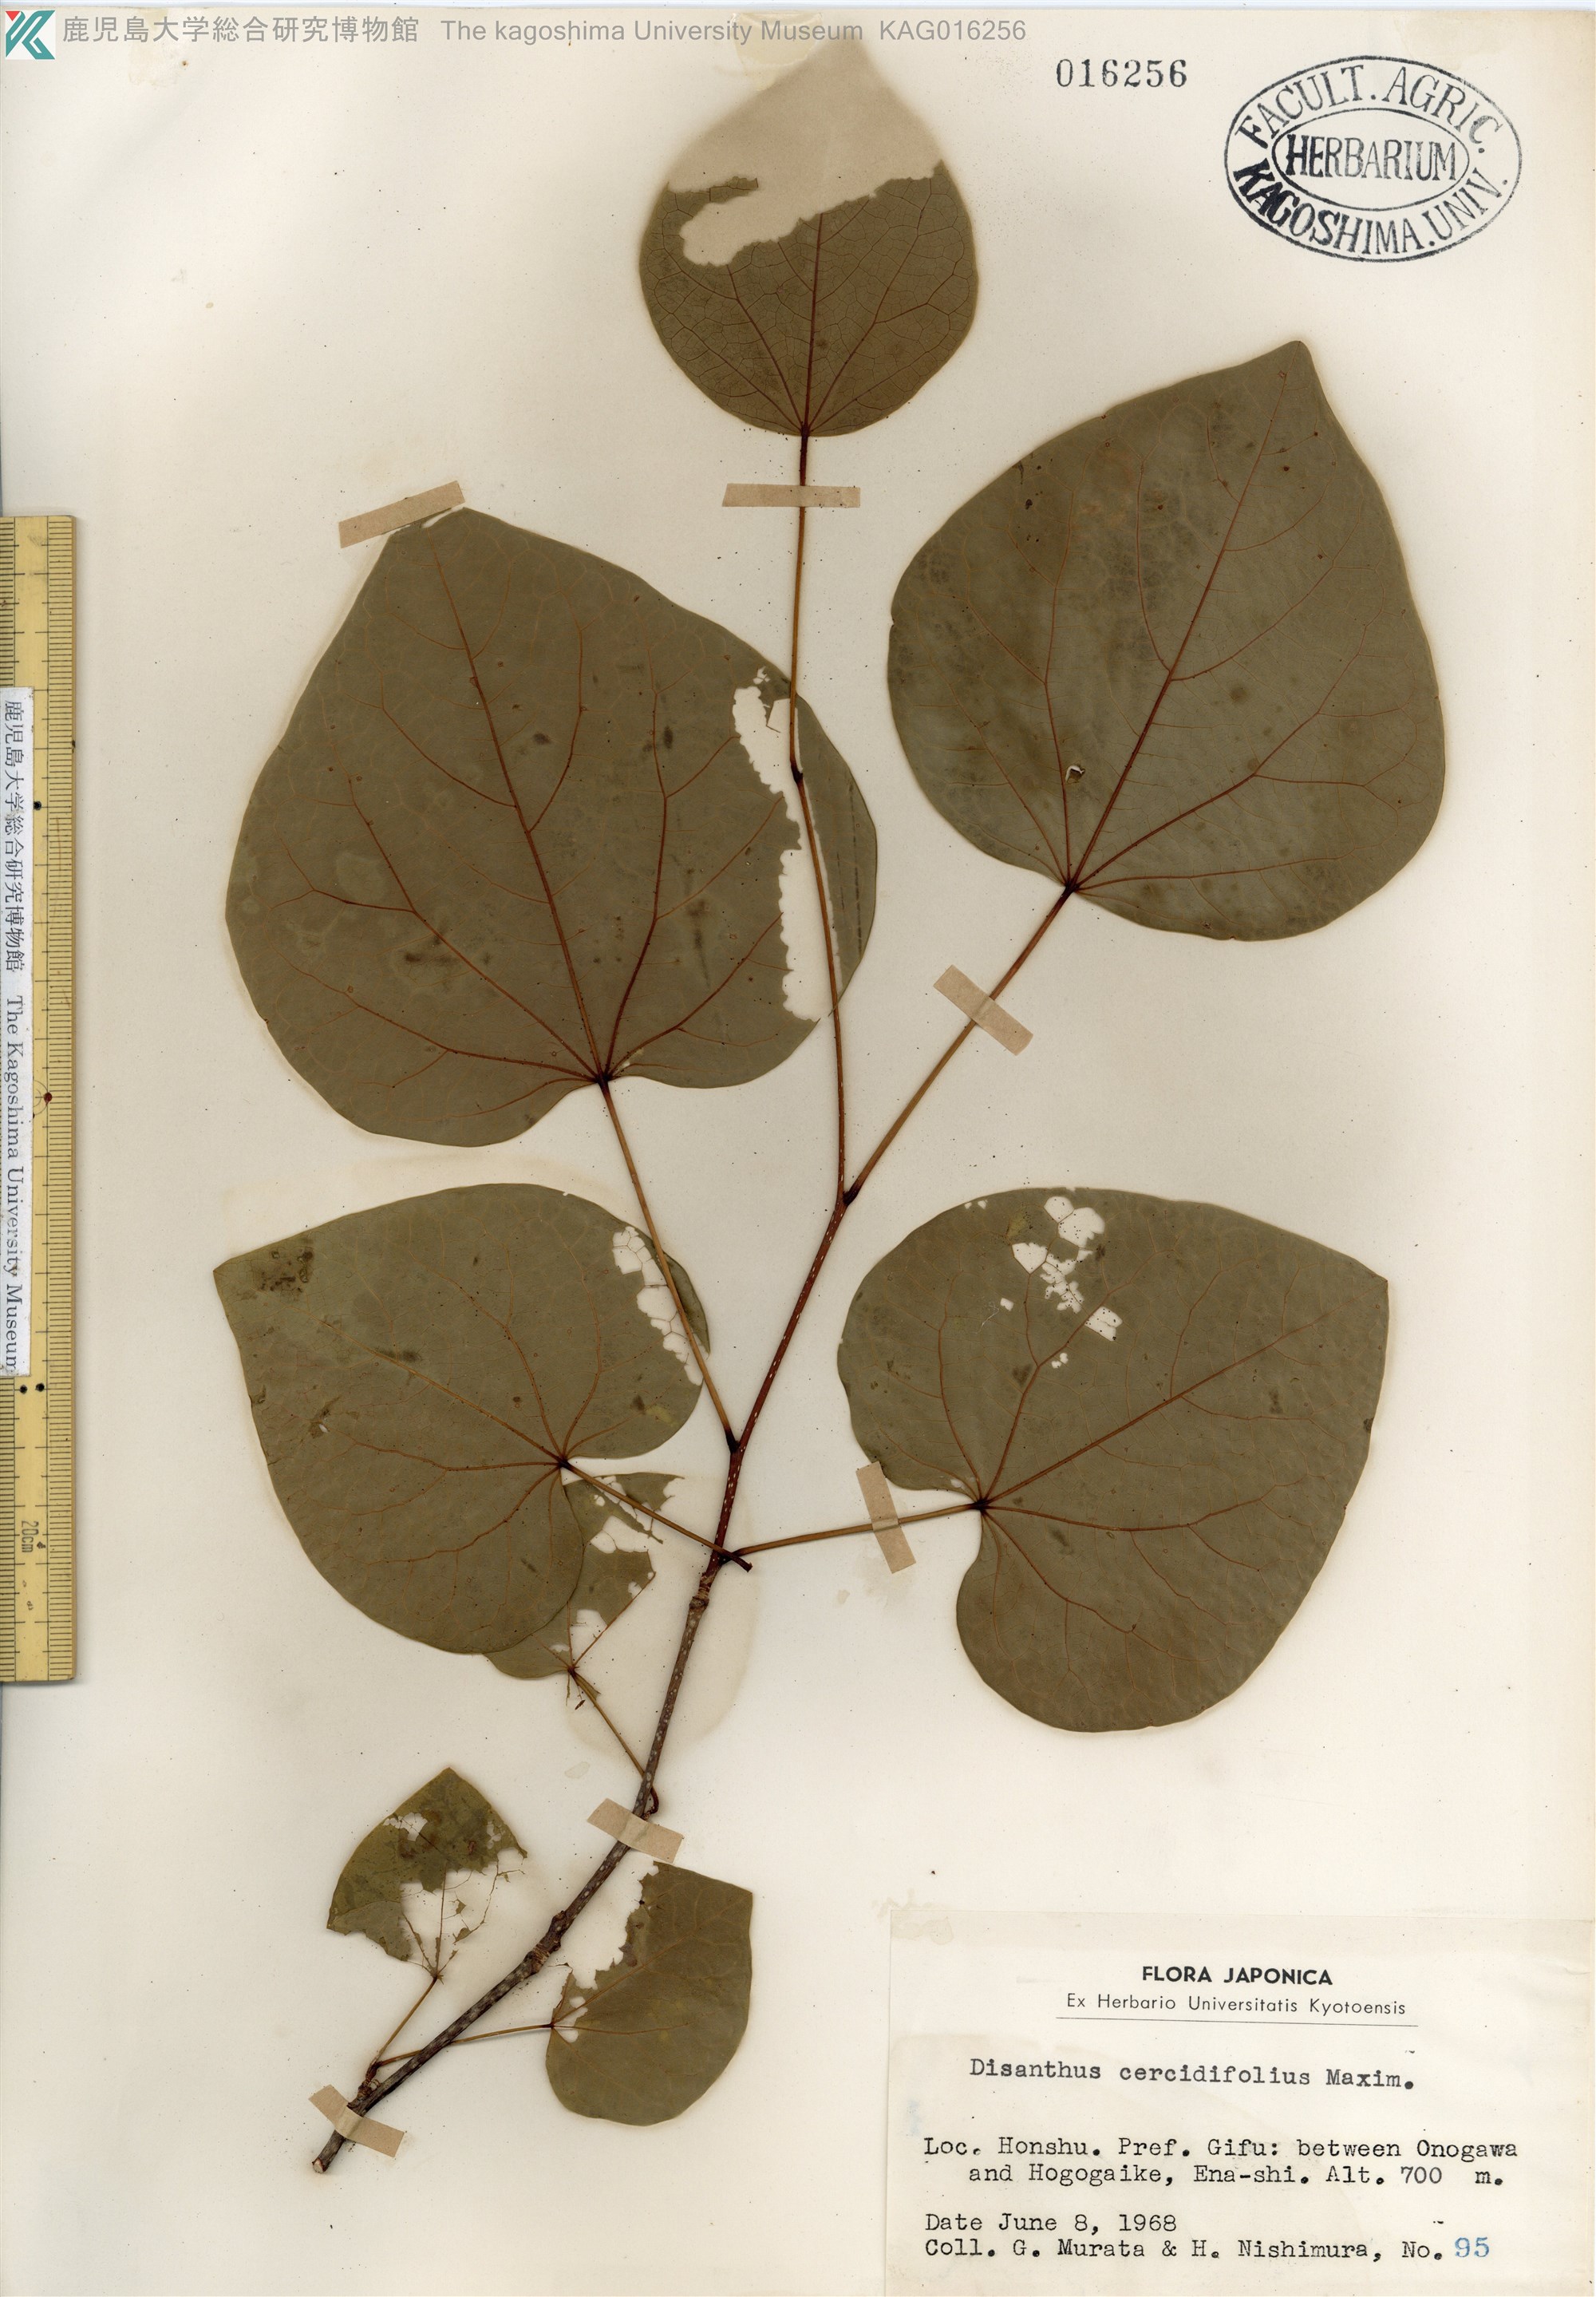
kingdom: Plantae
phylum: Tracheophyta
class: Magnoliopsida
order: Saxifragales
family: Hamamelidaceae
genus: Disanthus
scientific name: Disanthus cercidifolius
